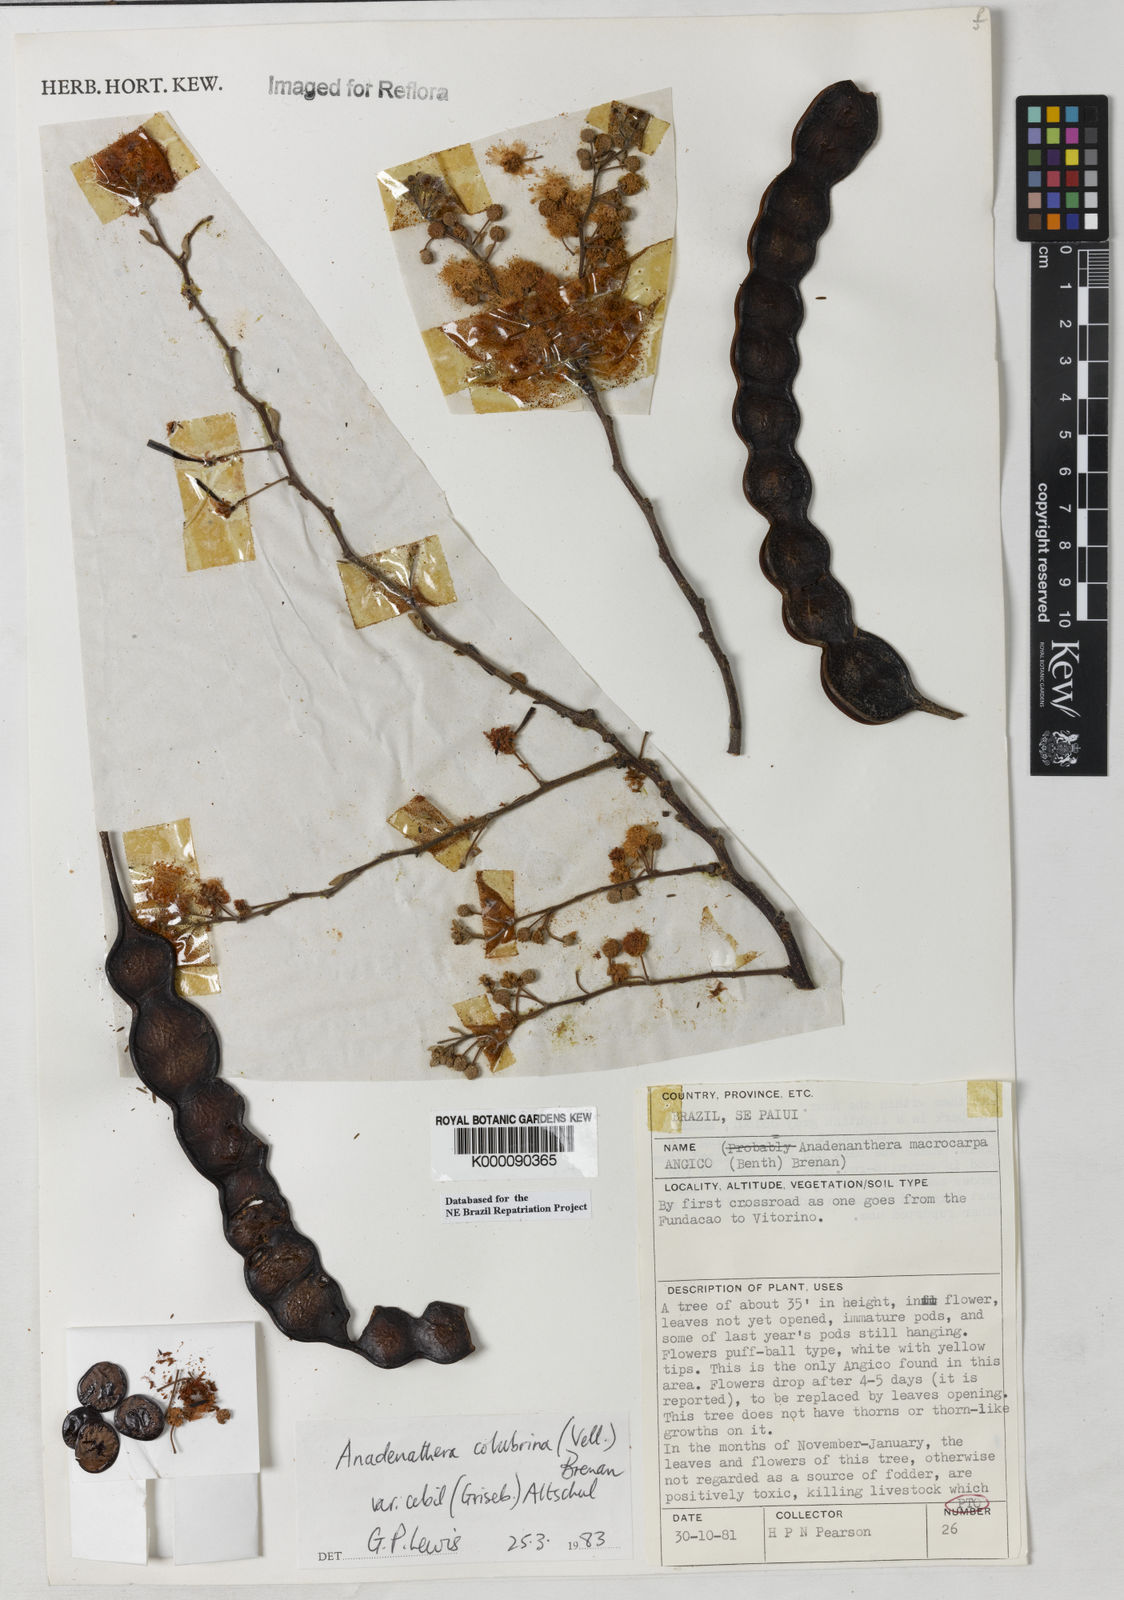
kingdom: Plantae
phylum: Tracheophyta
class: Magnoliopsida
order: Fabales
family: Fabaceae
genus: Anadenanthera
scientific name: Anadenanthera colubrina
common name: Curupay
